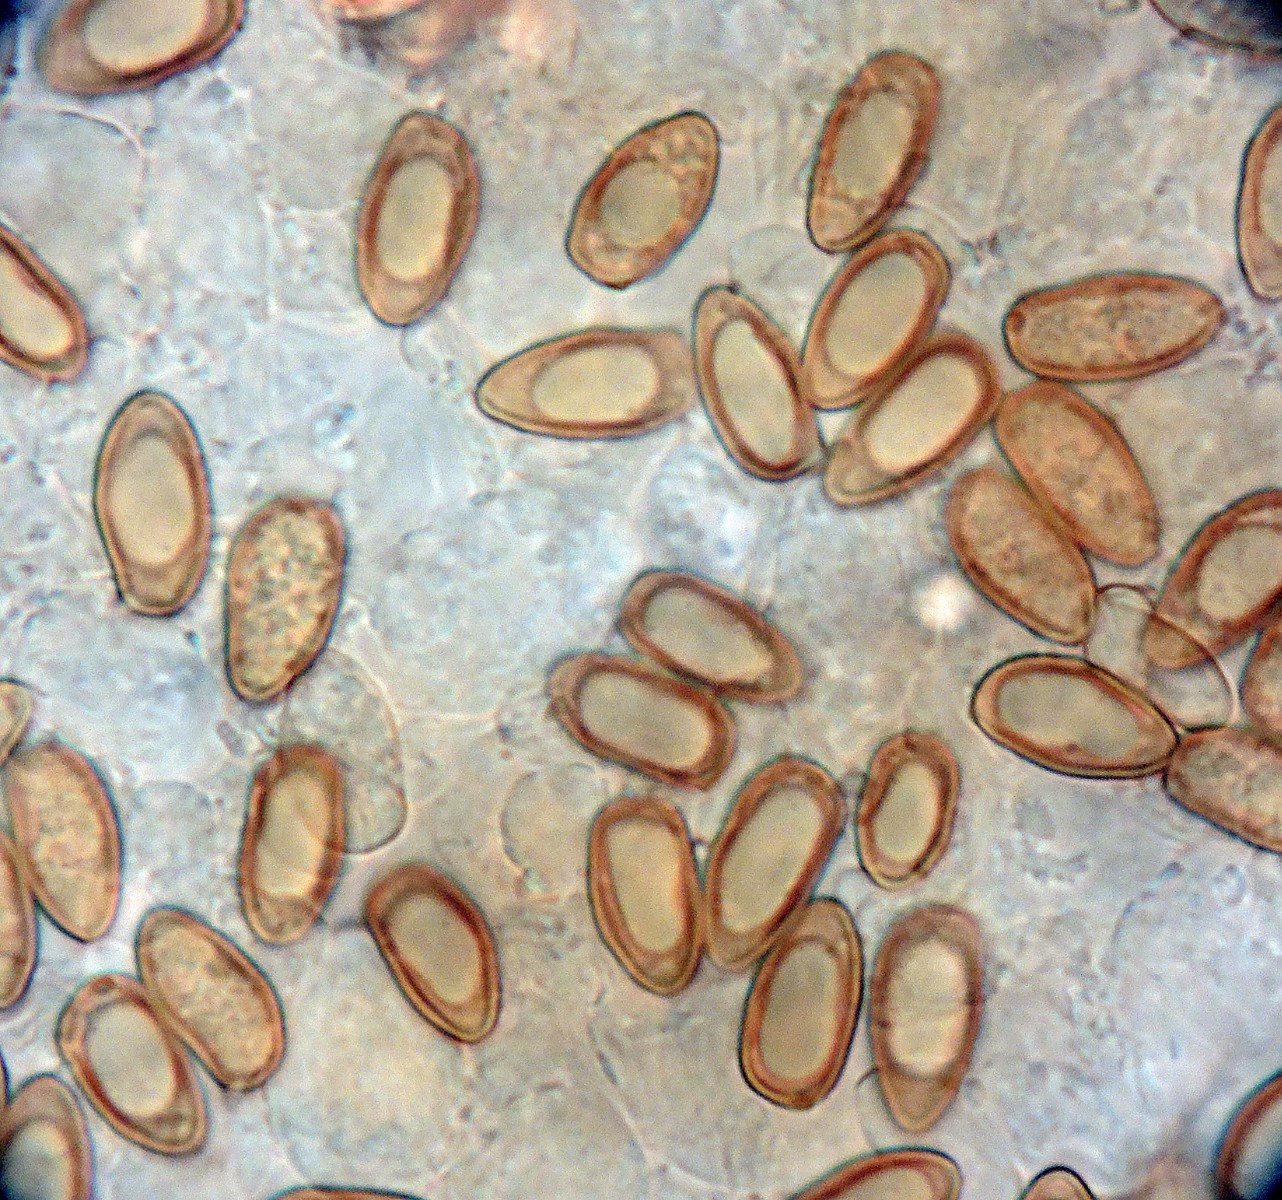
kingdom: Fungi
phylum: Basidiomycota
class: Agaricomycetes
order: Agaricales
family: Inocybaceae
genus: Inocybe
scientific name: Inocybe lacera
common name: laset trævlhat
